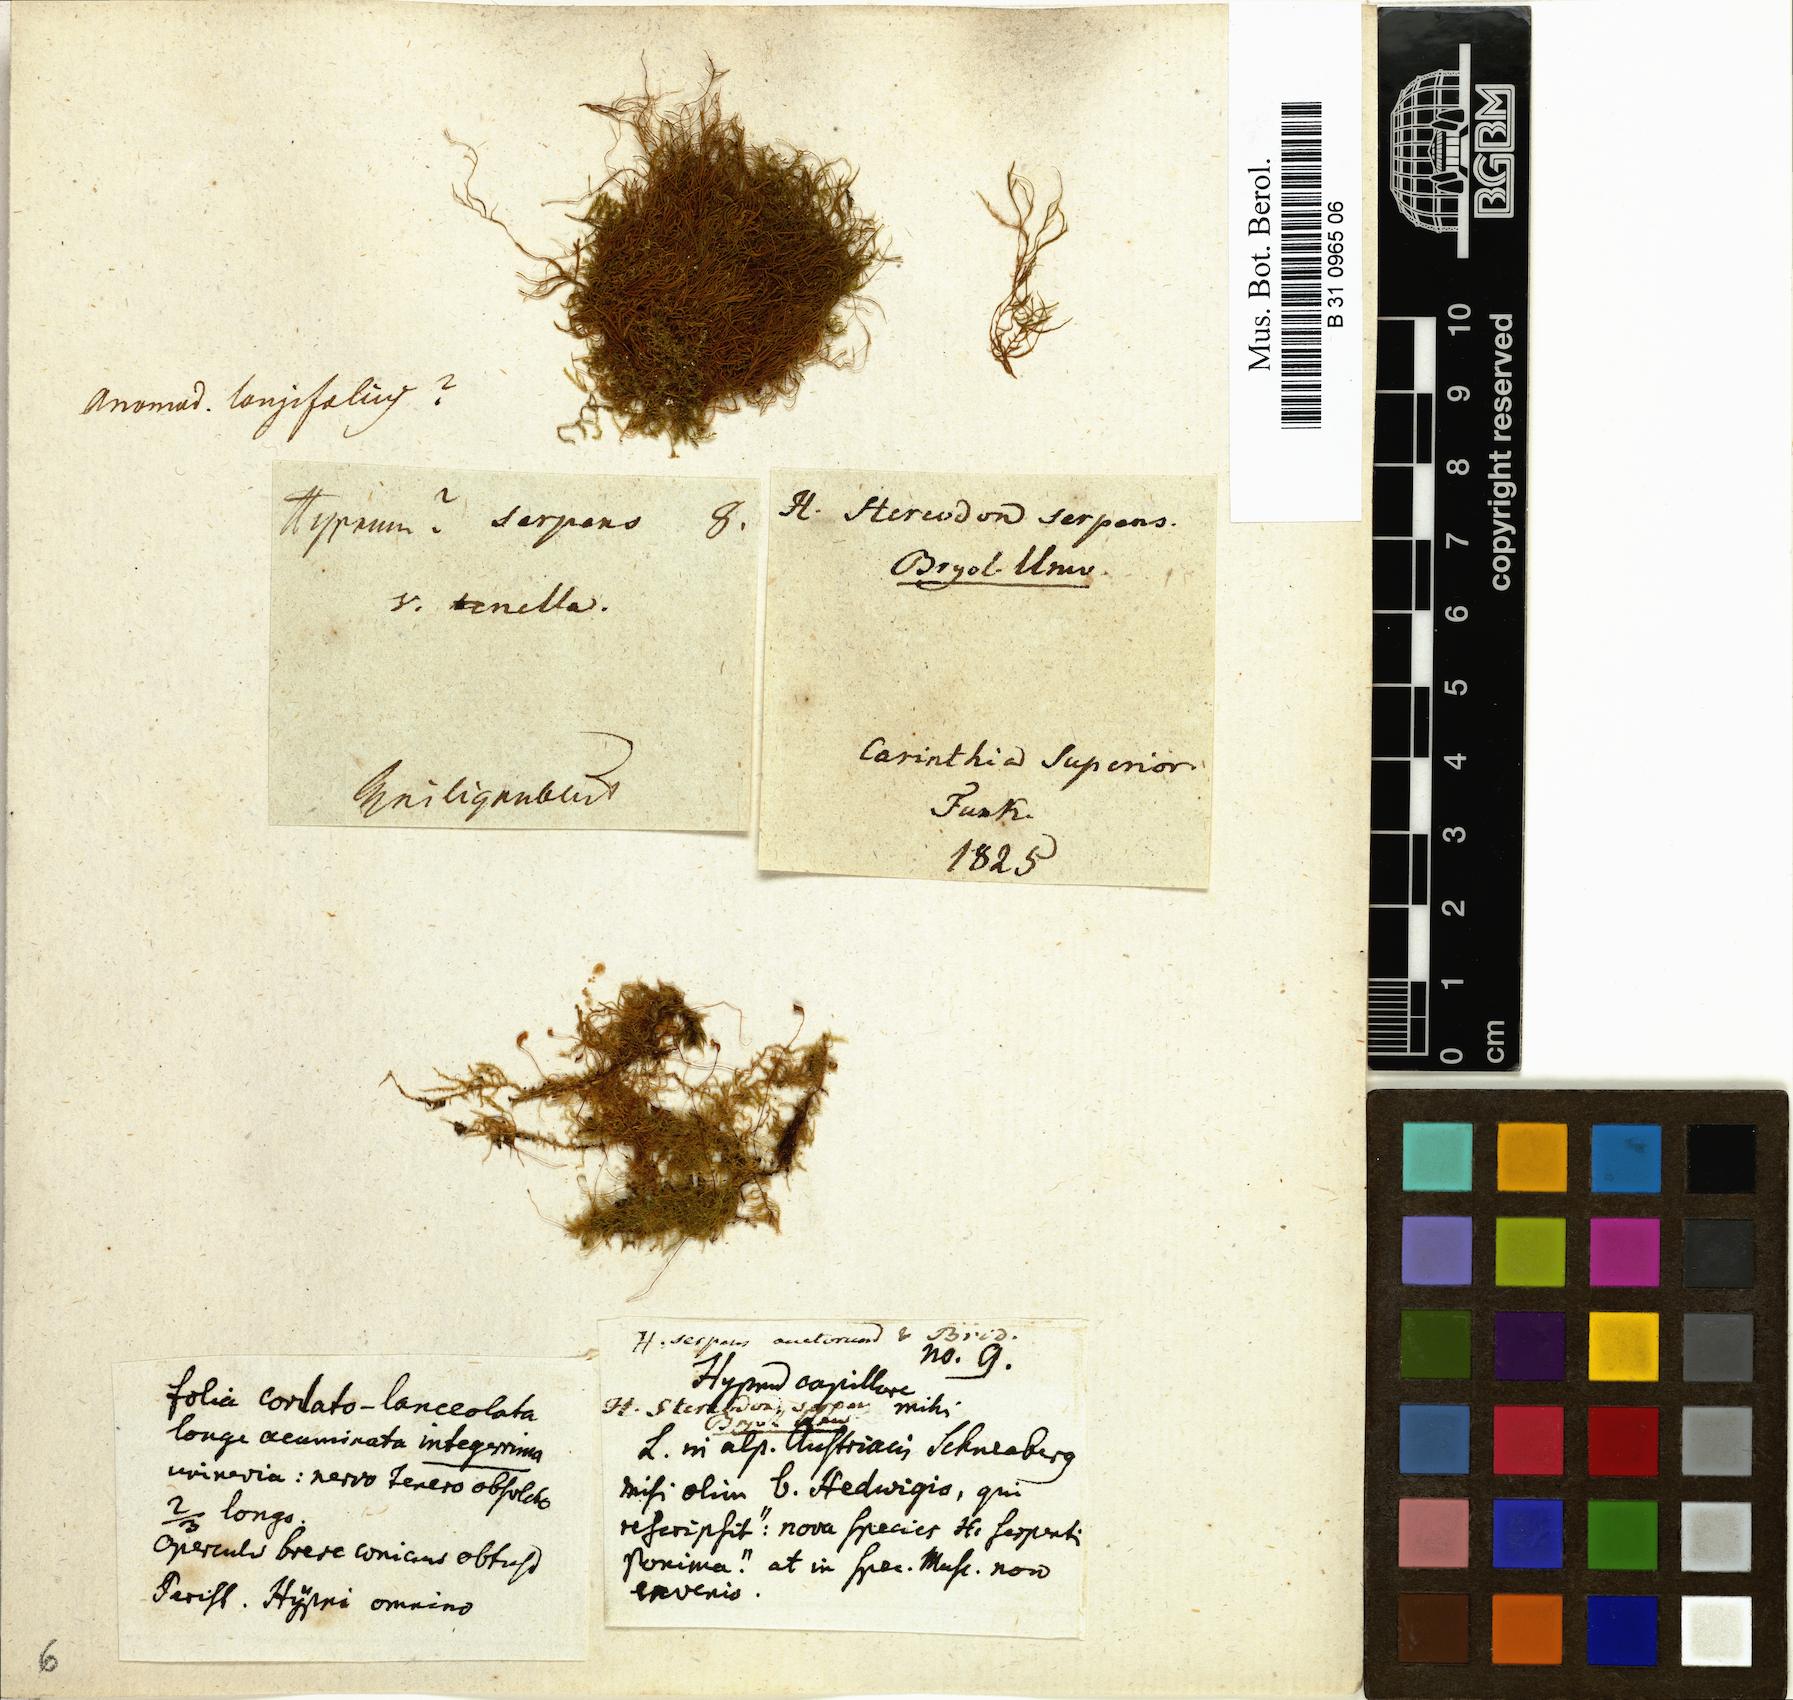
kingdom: Plantae
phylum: Bryophyta
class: Bryopsida
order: Hypnales
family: Amblystegiaceae
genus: Amblystegium
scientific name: Amblystegium serpens
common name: Jurkatzka's feather moss
